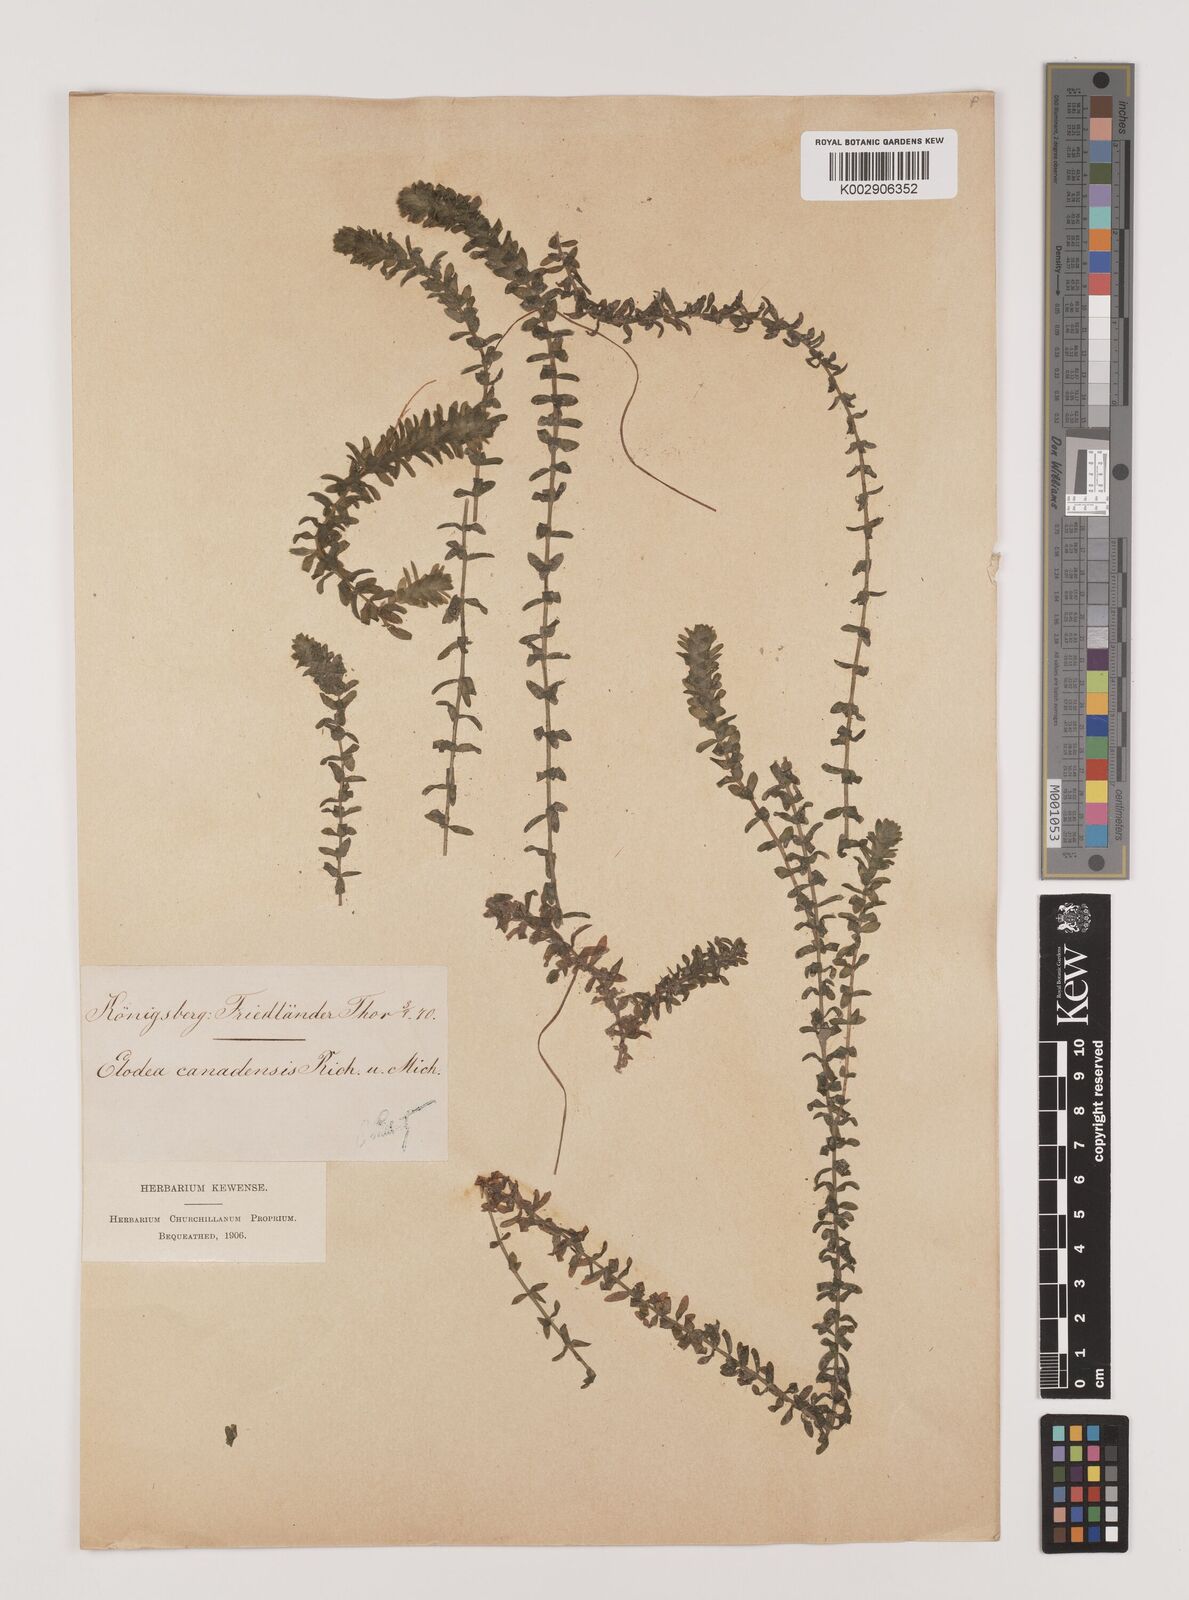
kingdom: Plantae
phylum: Tracheophyta
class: Liliopsida
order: Alismatales
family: Hydrocharitaceae
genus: Elodea
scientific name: Elodea canadensis
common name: Canadian waterweed
